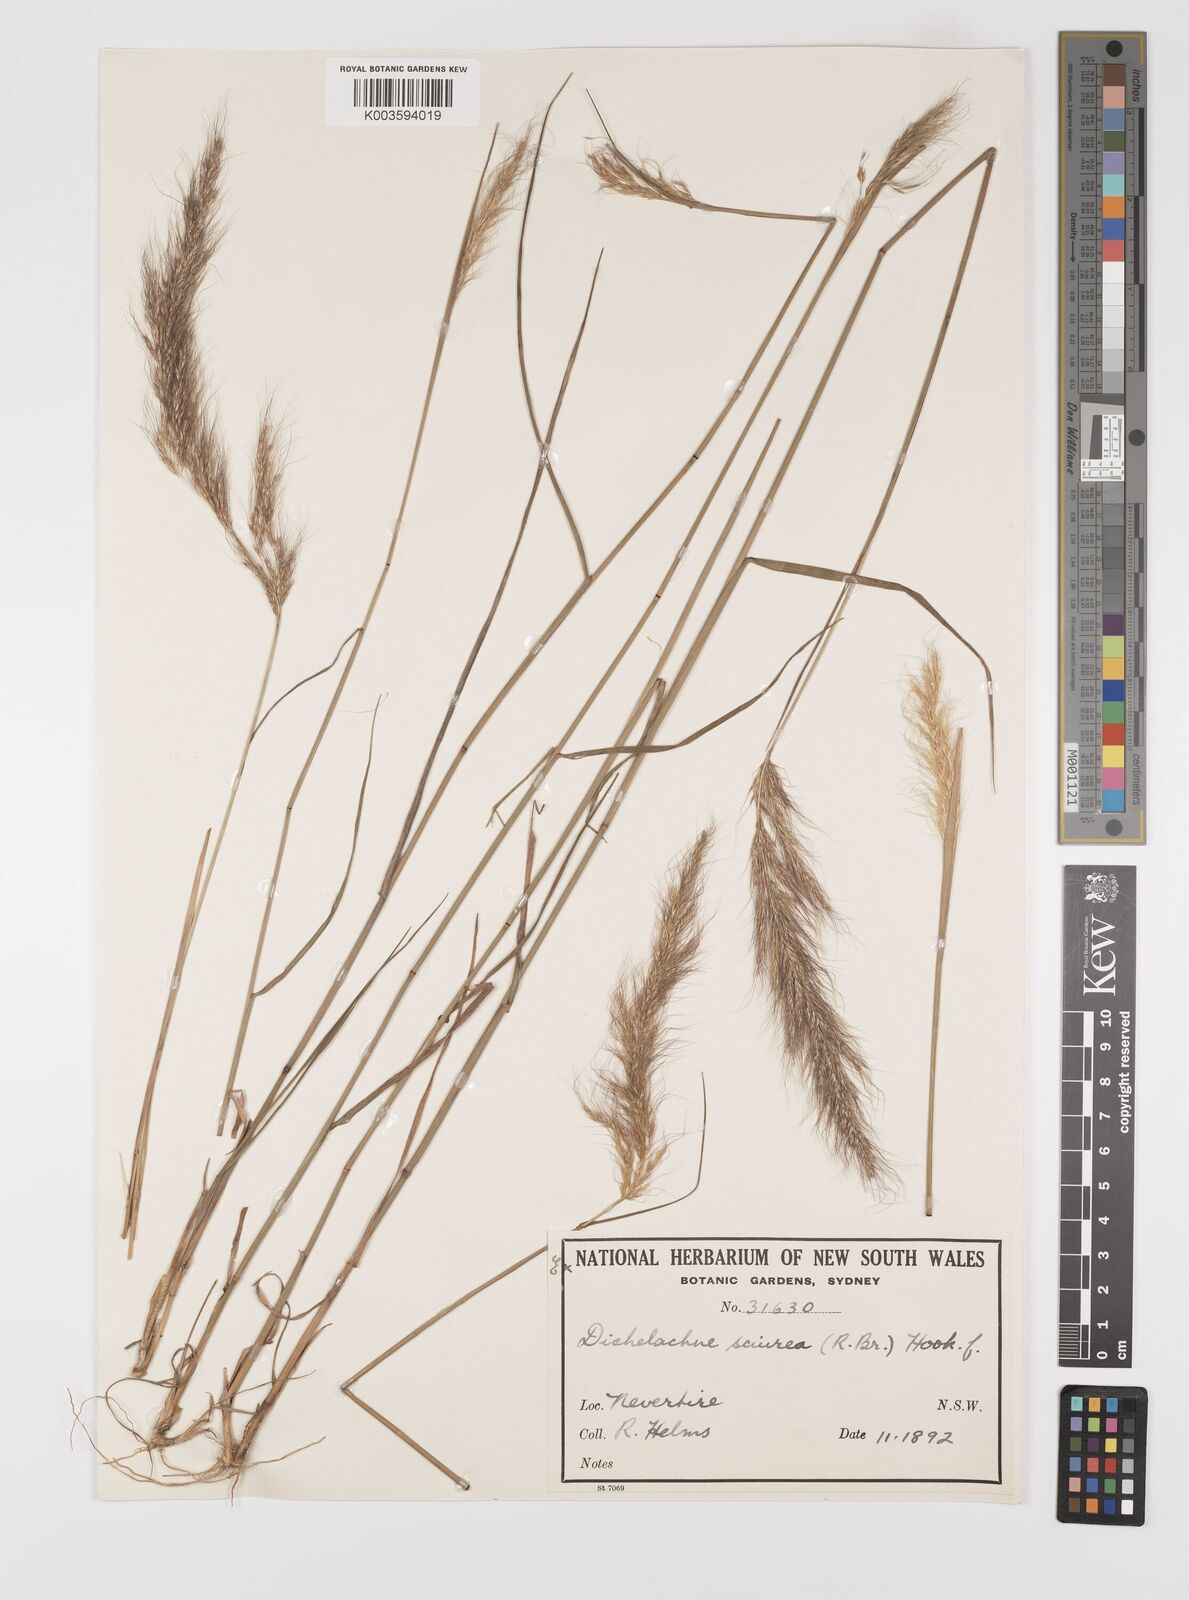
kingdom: Plantae
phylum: Tracheophyta
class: Liliopsida
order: Poales
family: Poaceae
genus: Dichelachne
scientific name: Dichelachne micrantha
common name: Plumegrass
